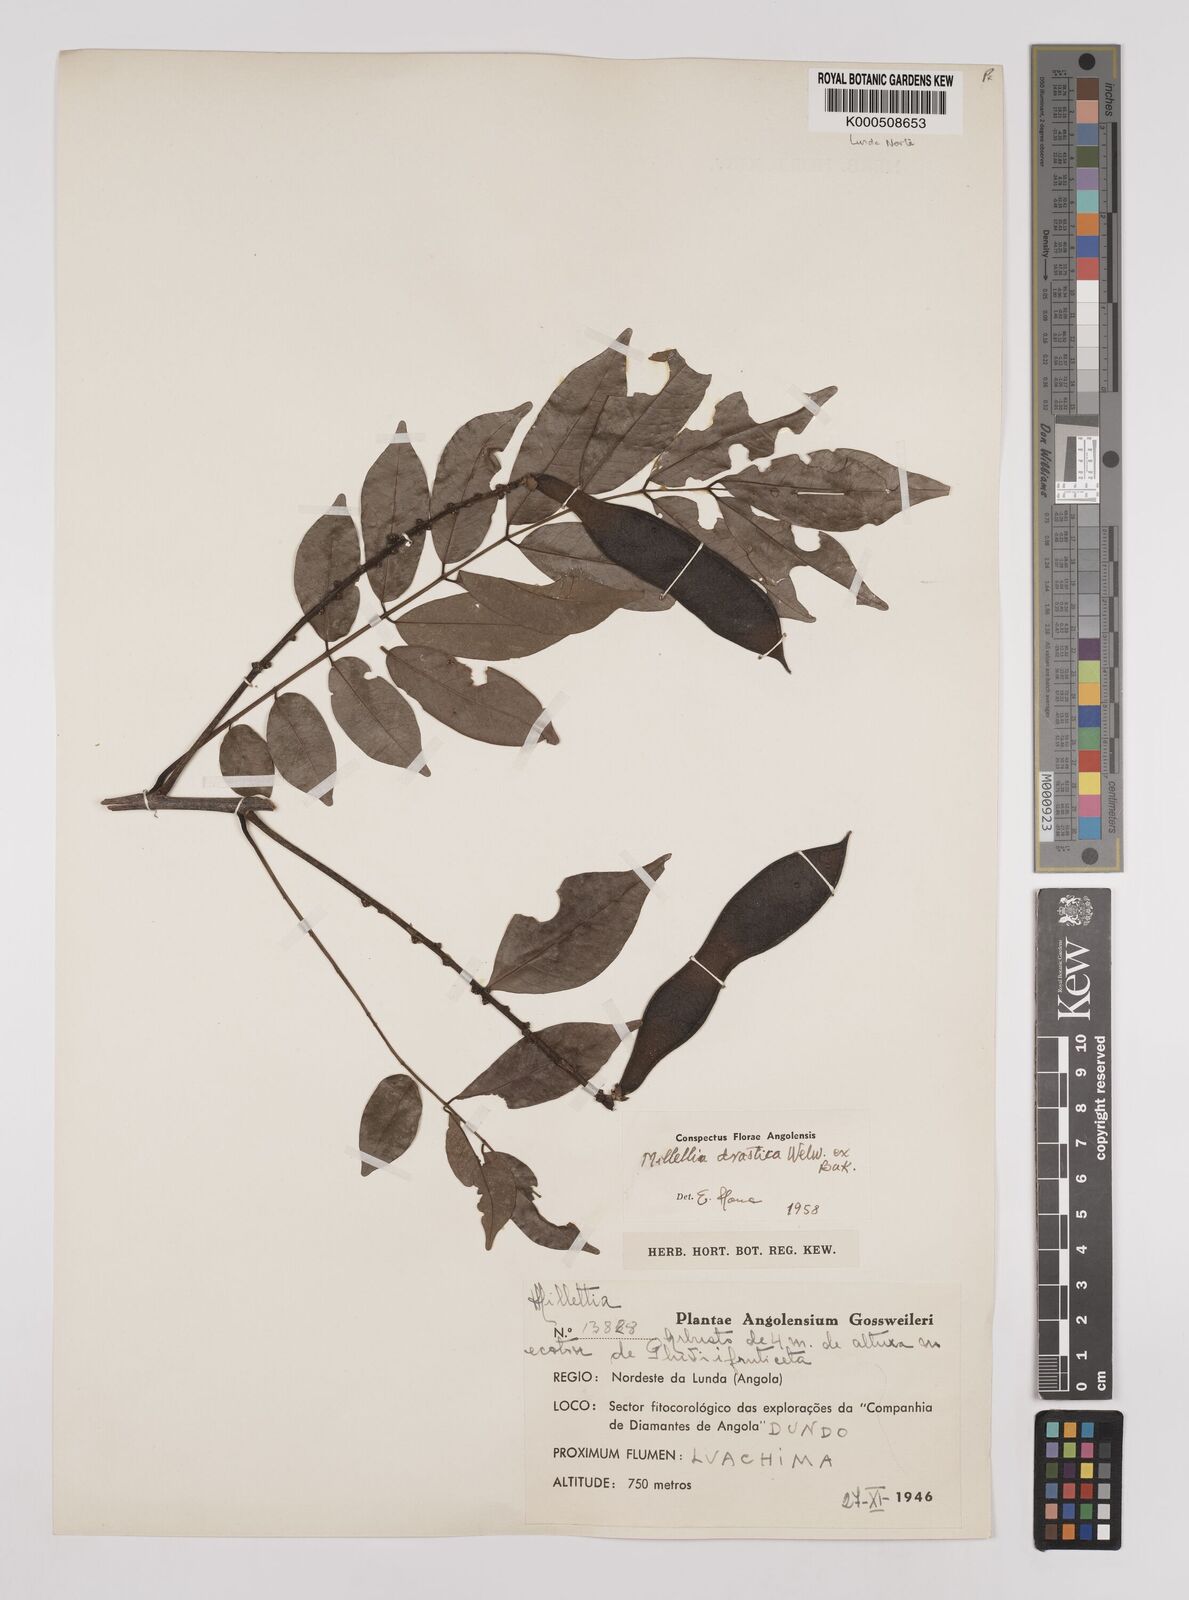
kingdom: Plantae
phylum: Tracheophyta
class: Magnoliopsida
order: Fabales
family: Fabaceae
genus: Millettia
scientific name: Millettia drastica
